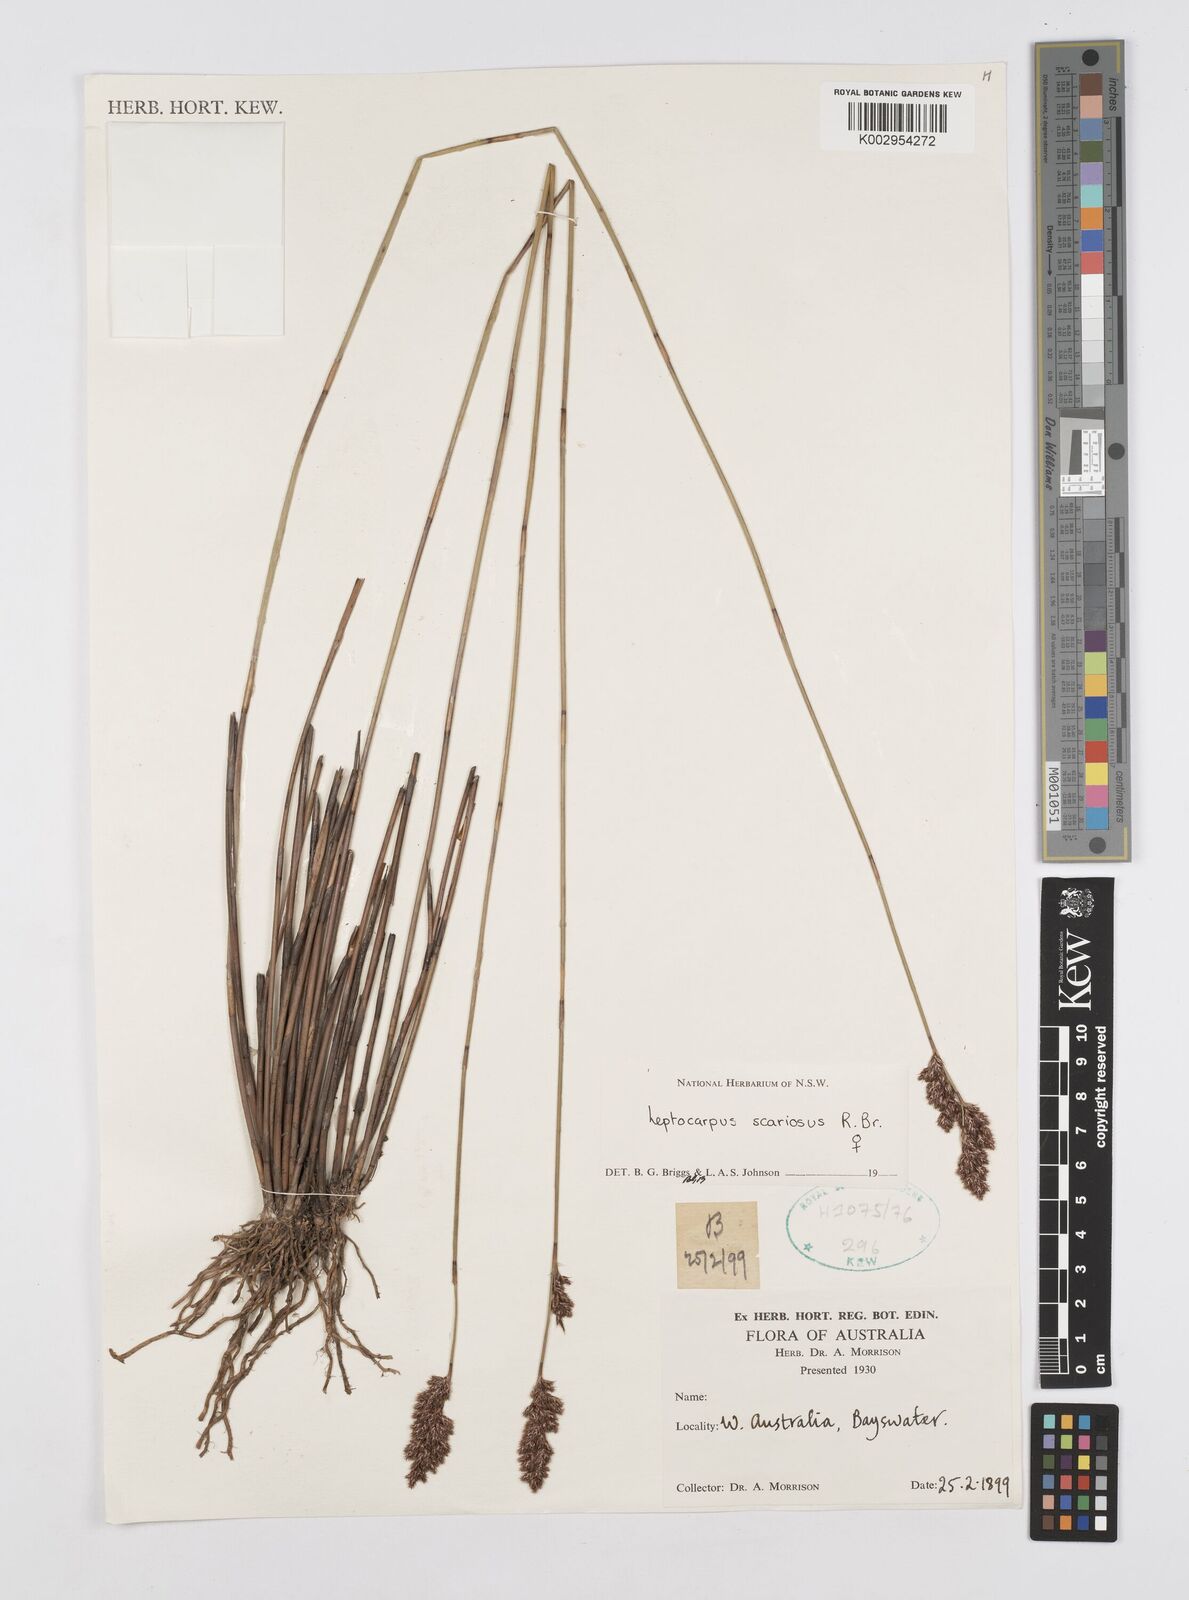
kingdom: Plantae
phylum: Tracheophyta
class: Liliopsida
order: Poales
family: Restionaceae
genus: Leptocarpus
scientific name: Leptocarpus scariosus
